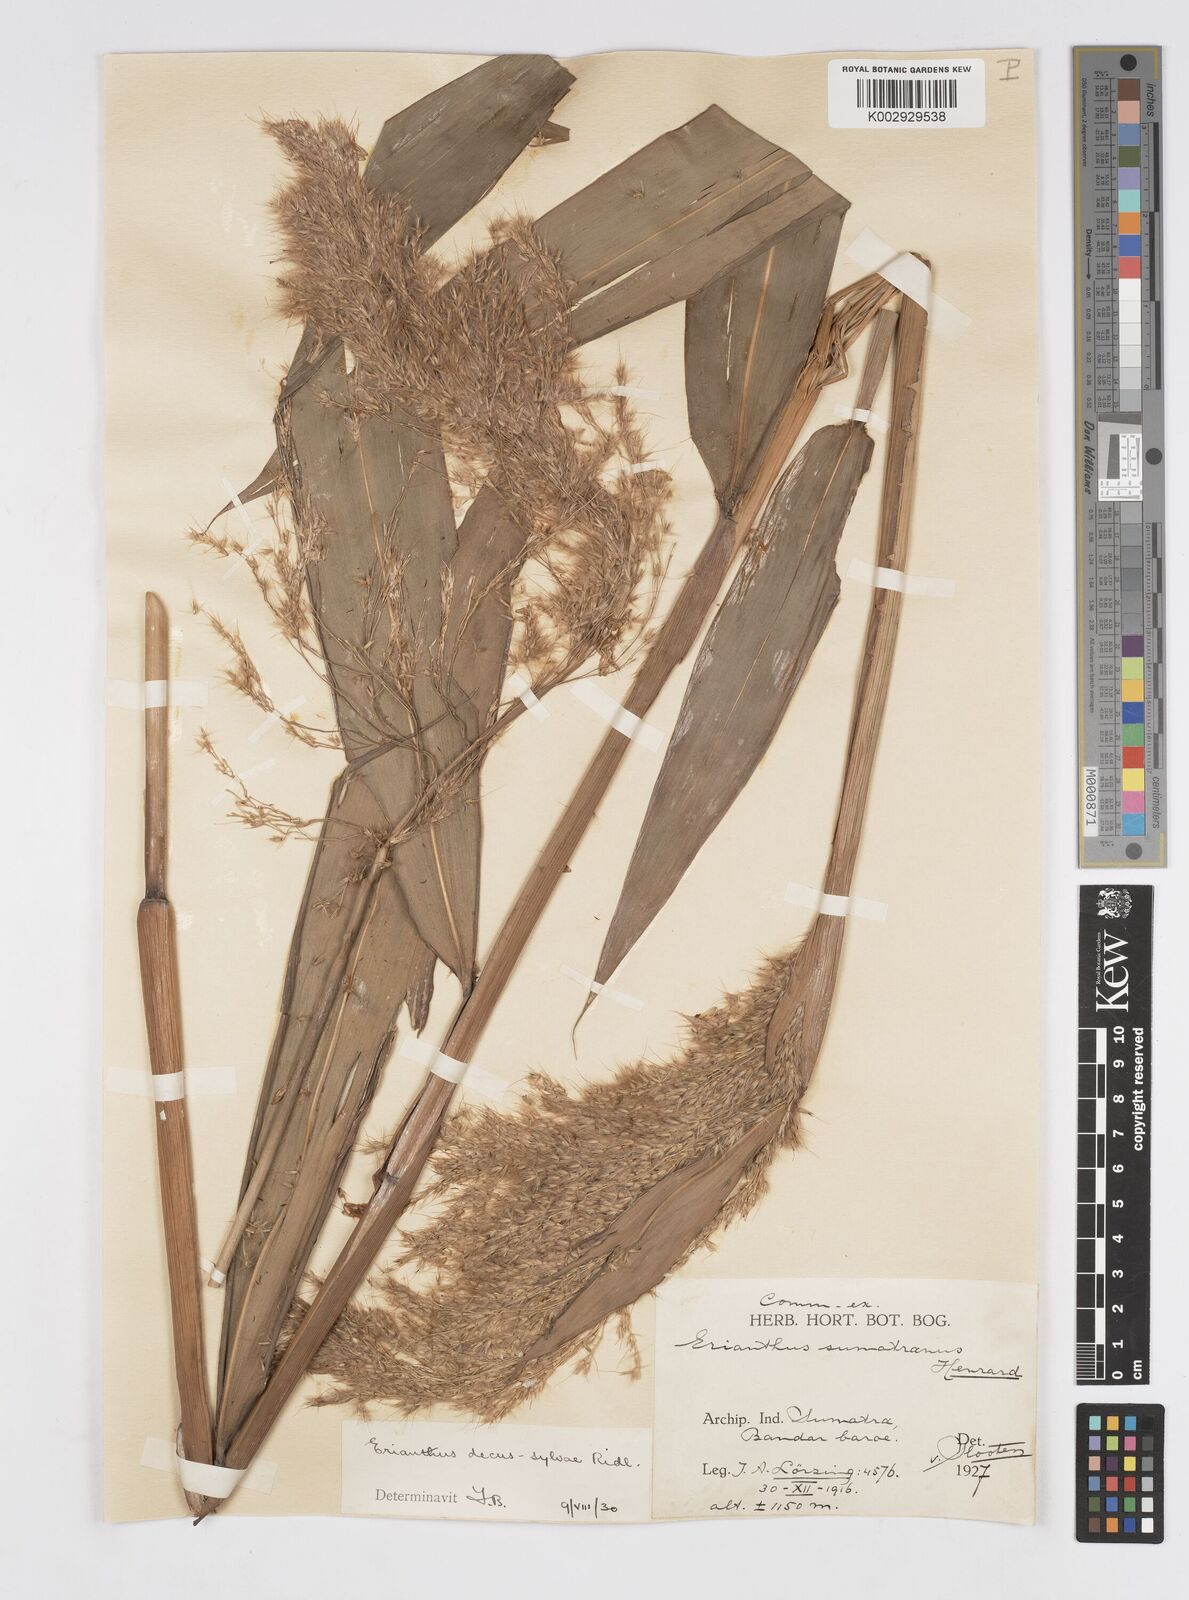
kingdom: Plantae
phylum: Tracheophyta
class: Liliopsida
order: Poales
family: Poaceae
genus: Saccharum
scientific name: Saccharum
